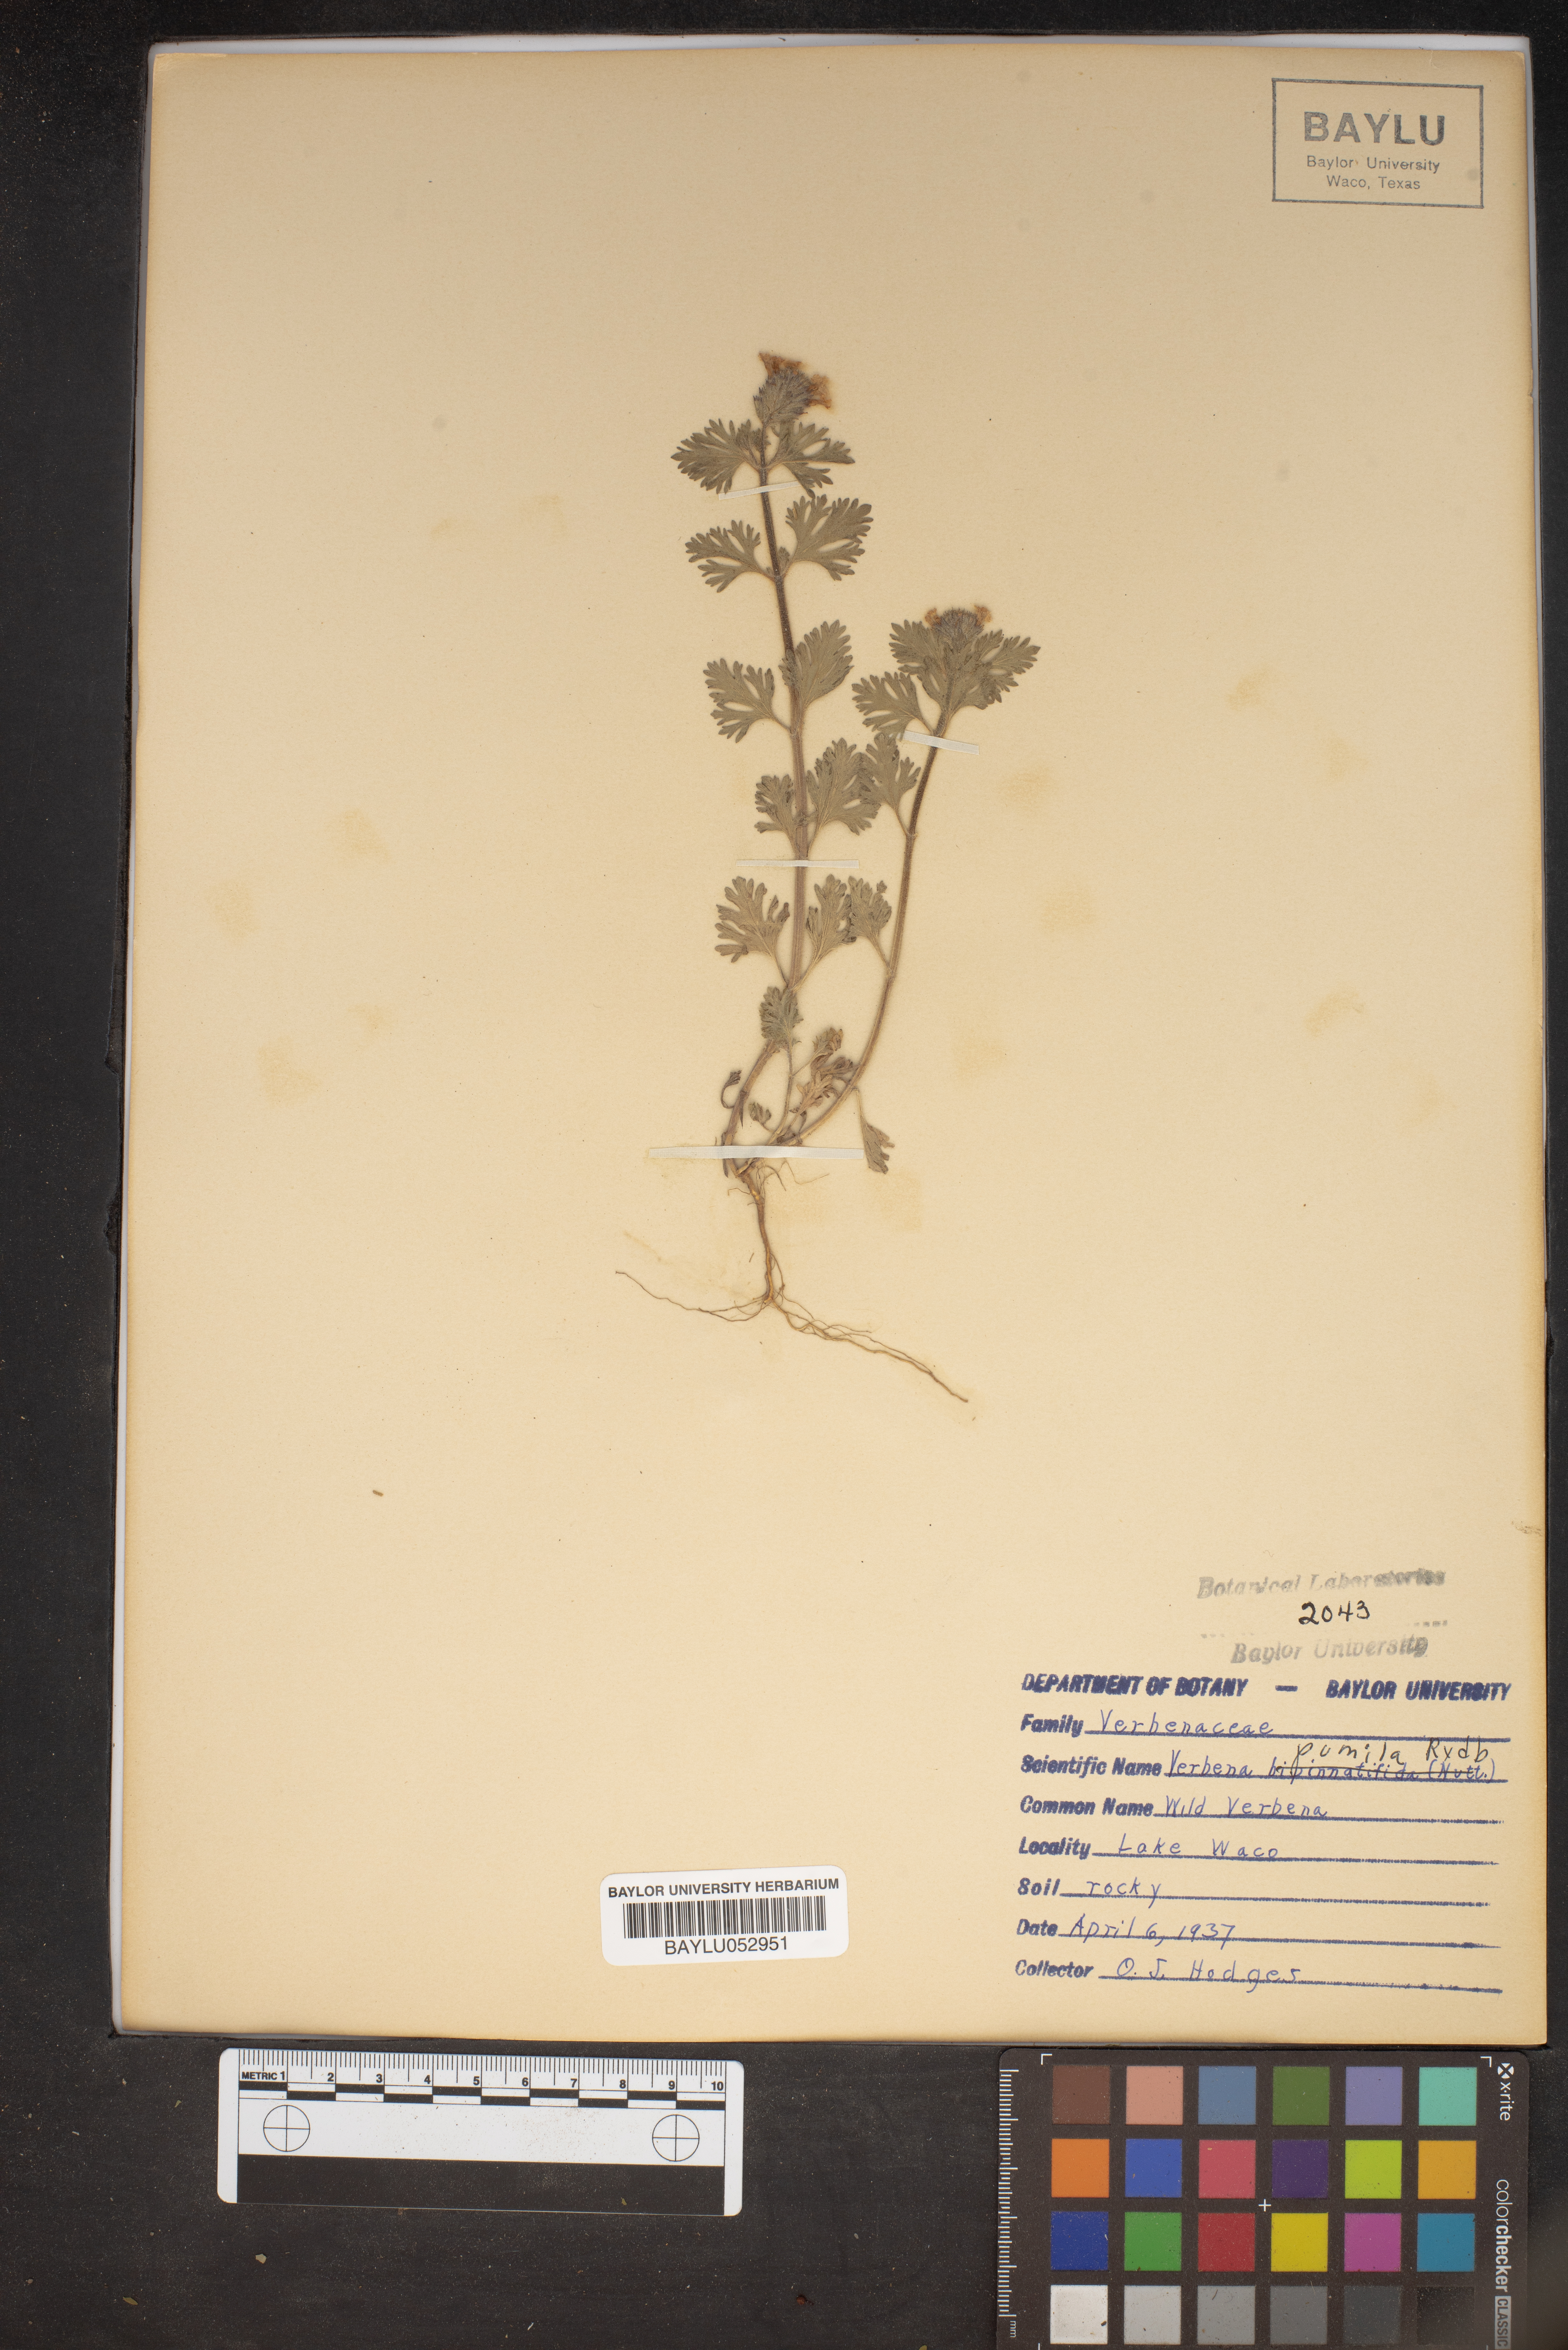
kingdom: Plantae
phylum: Tracheophyta
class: Magnoliopsida
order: Lamiales
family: Verbenaceae
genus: Verbena
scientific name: Verbena pumila
